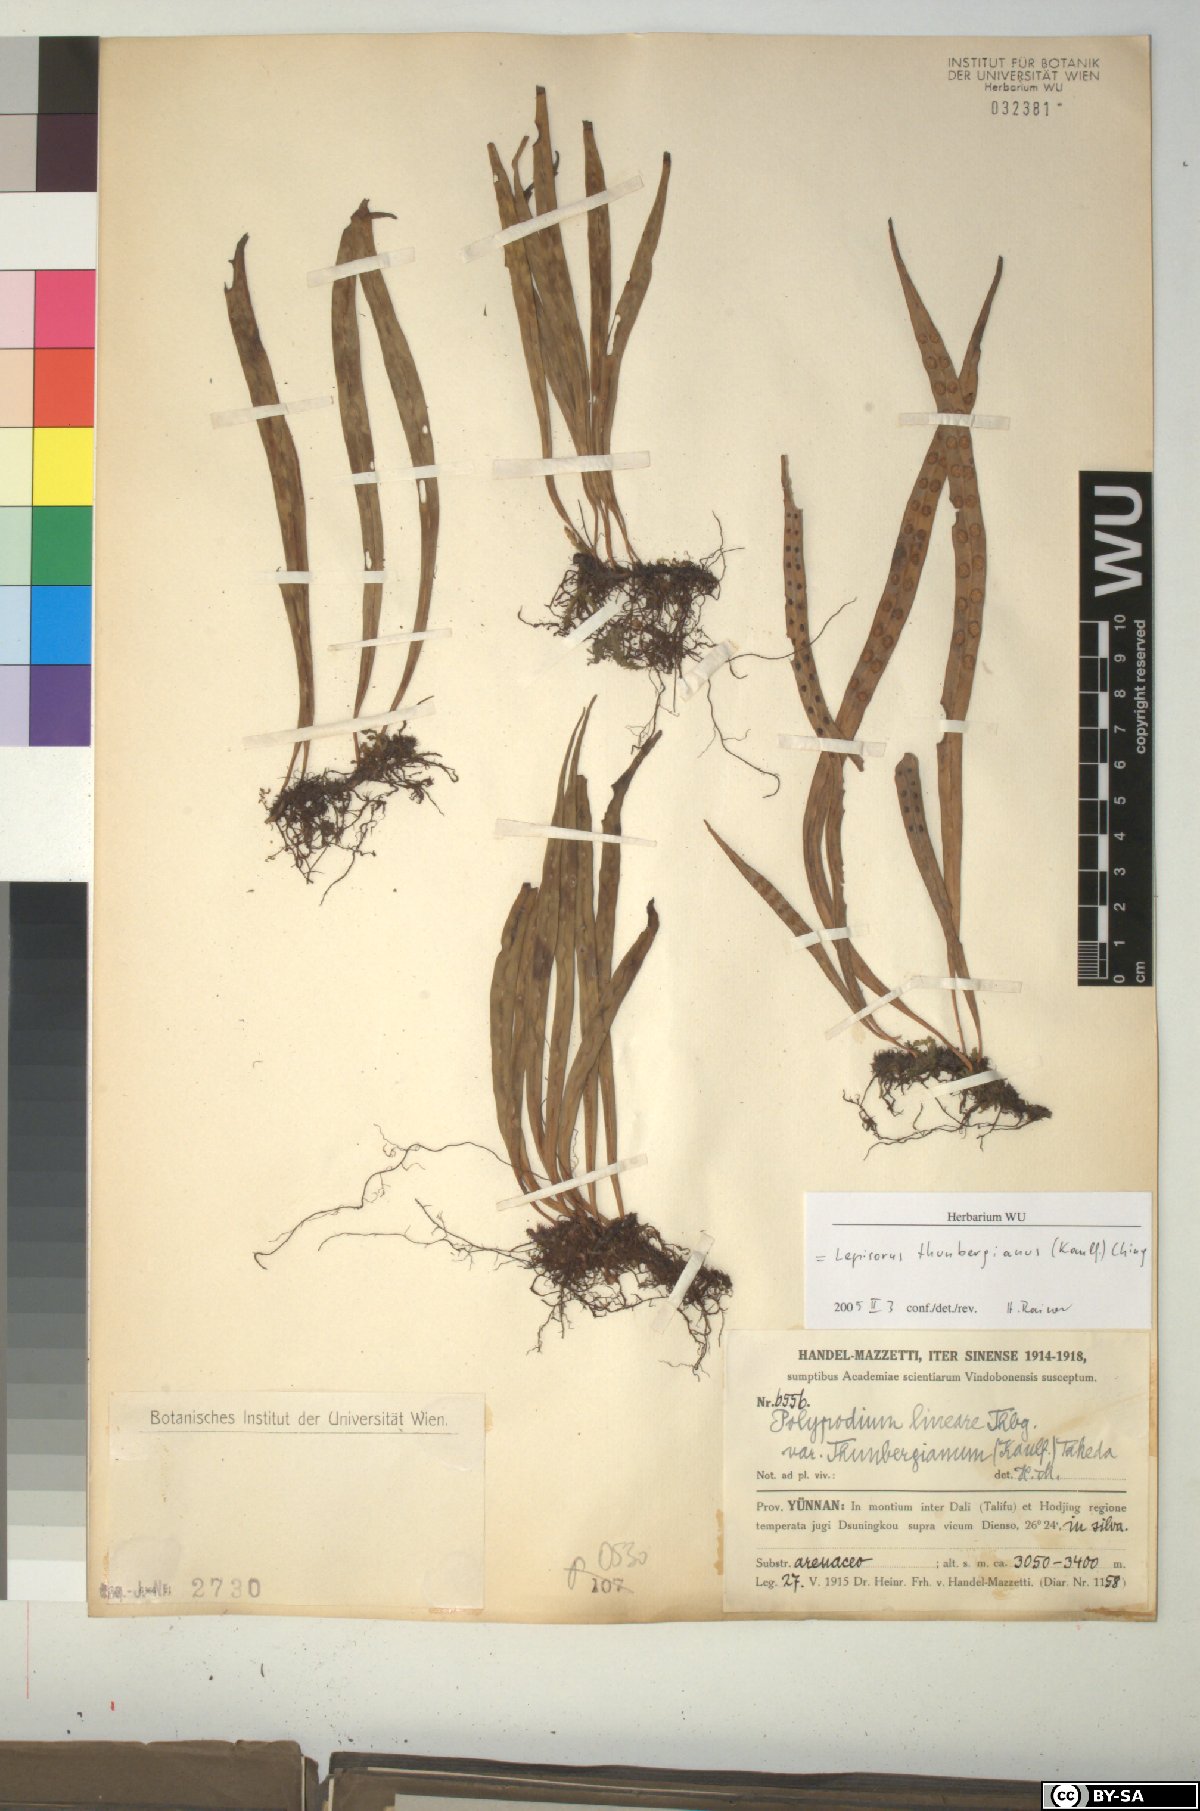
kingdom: Plantae
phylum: Tracheophyta
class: Polypodiopsida
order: Polypodiales
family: Polypodiaceae
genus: Lepisorus
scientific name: Lepisorus thunbergianus
